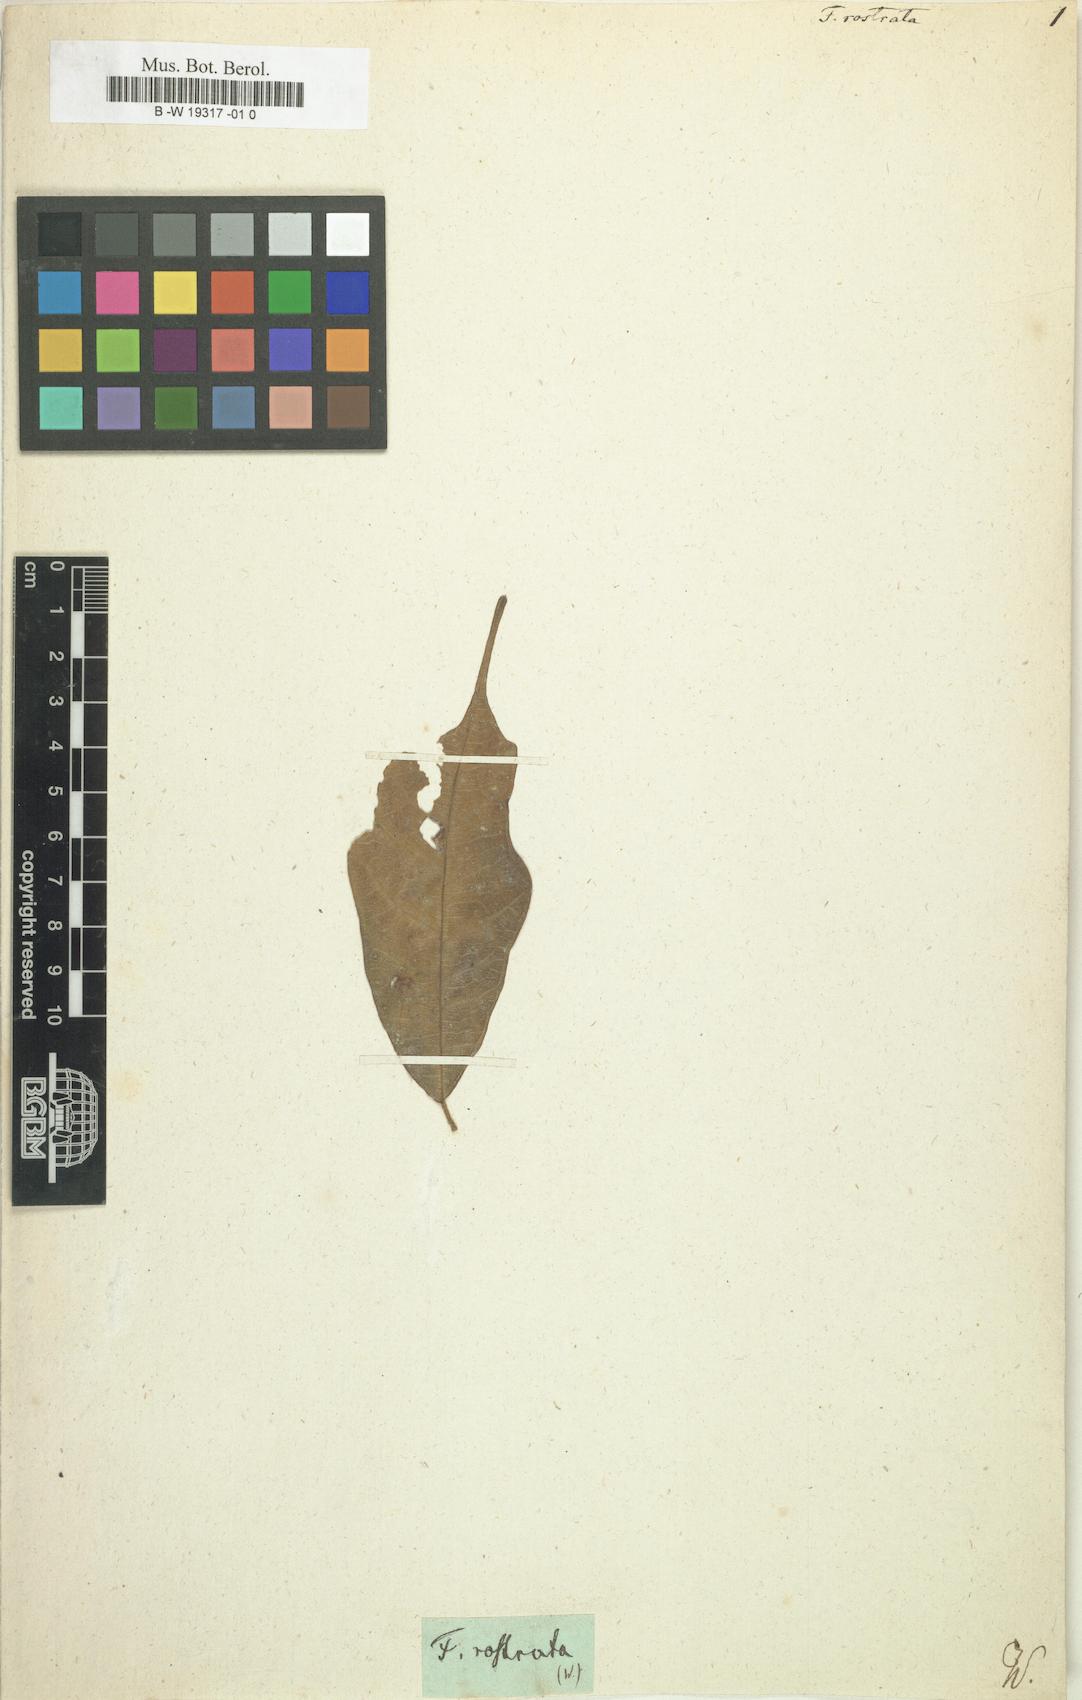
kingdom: Plantae
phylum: Tracheophyta
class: Magnoliopsida
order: Rosales
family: Moraceae
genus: Ficus
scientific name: Ficus rostrata
